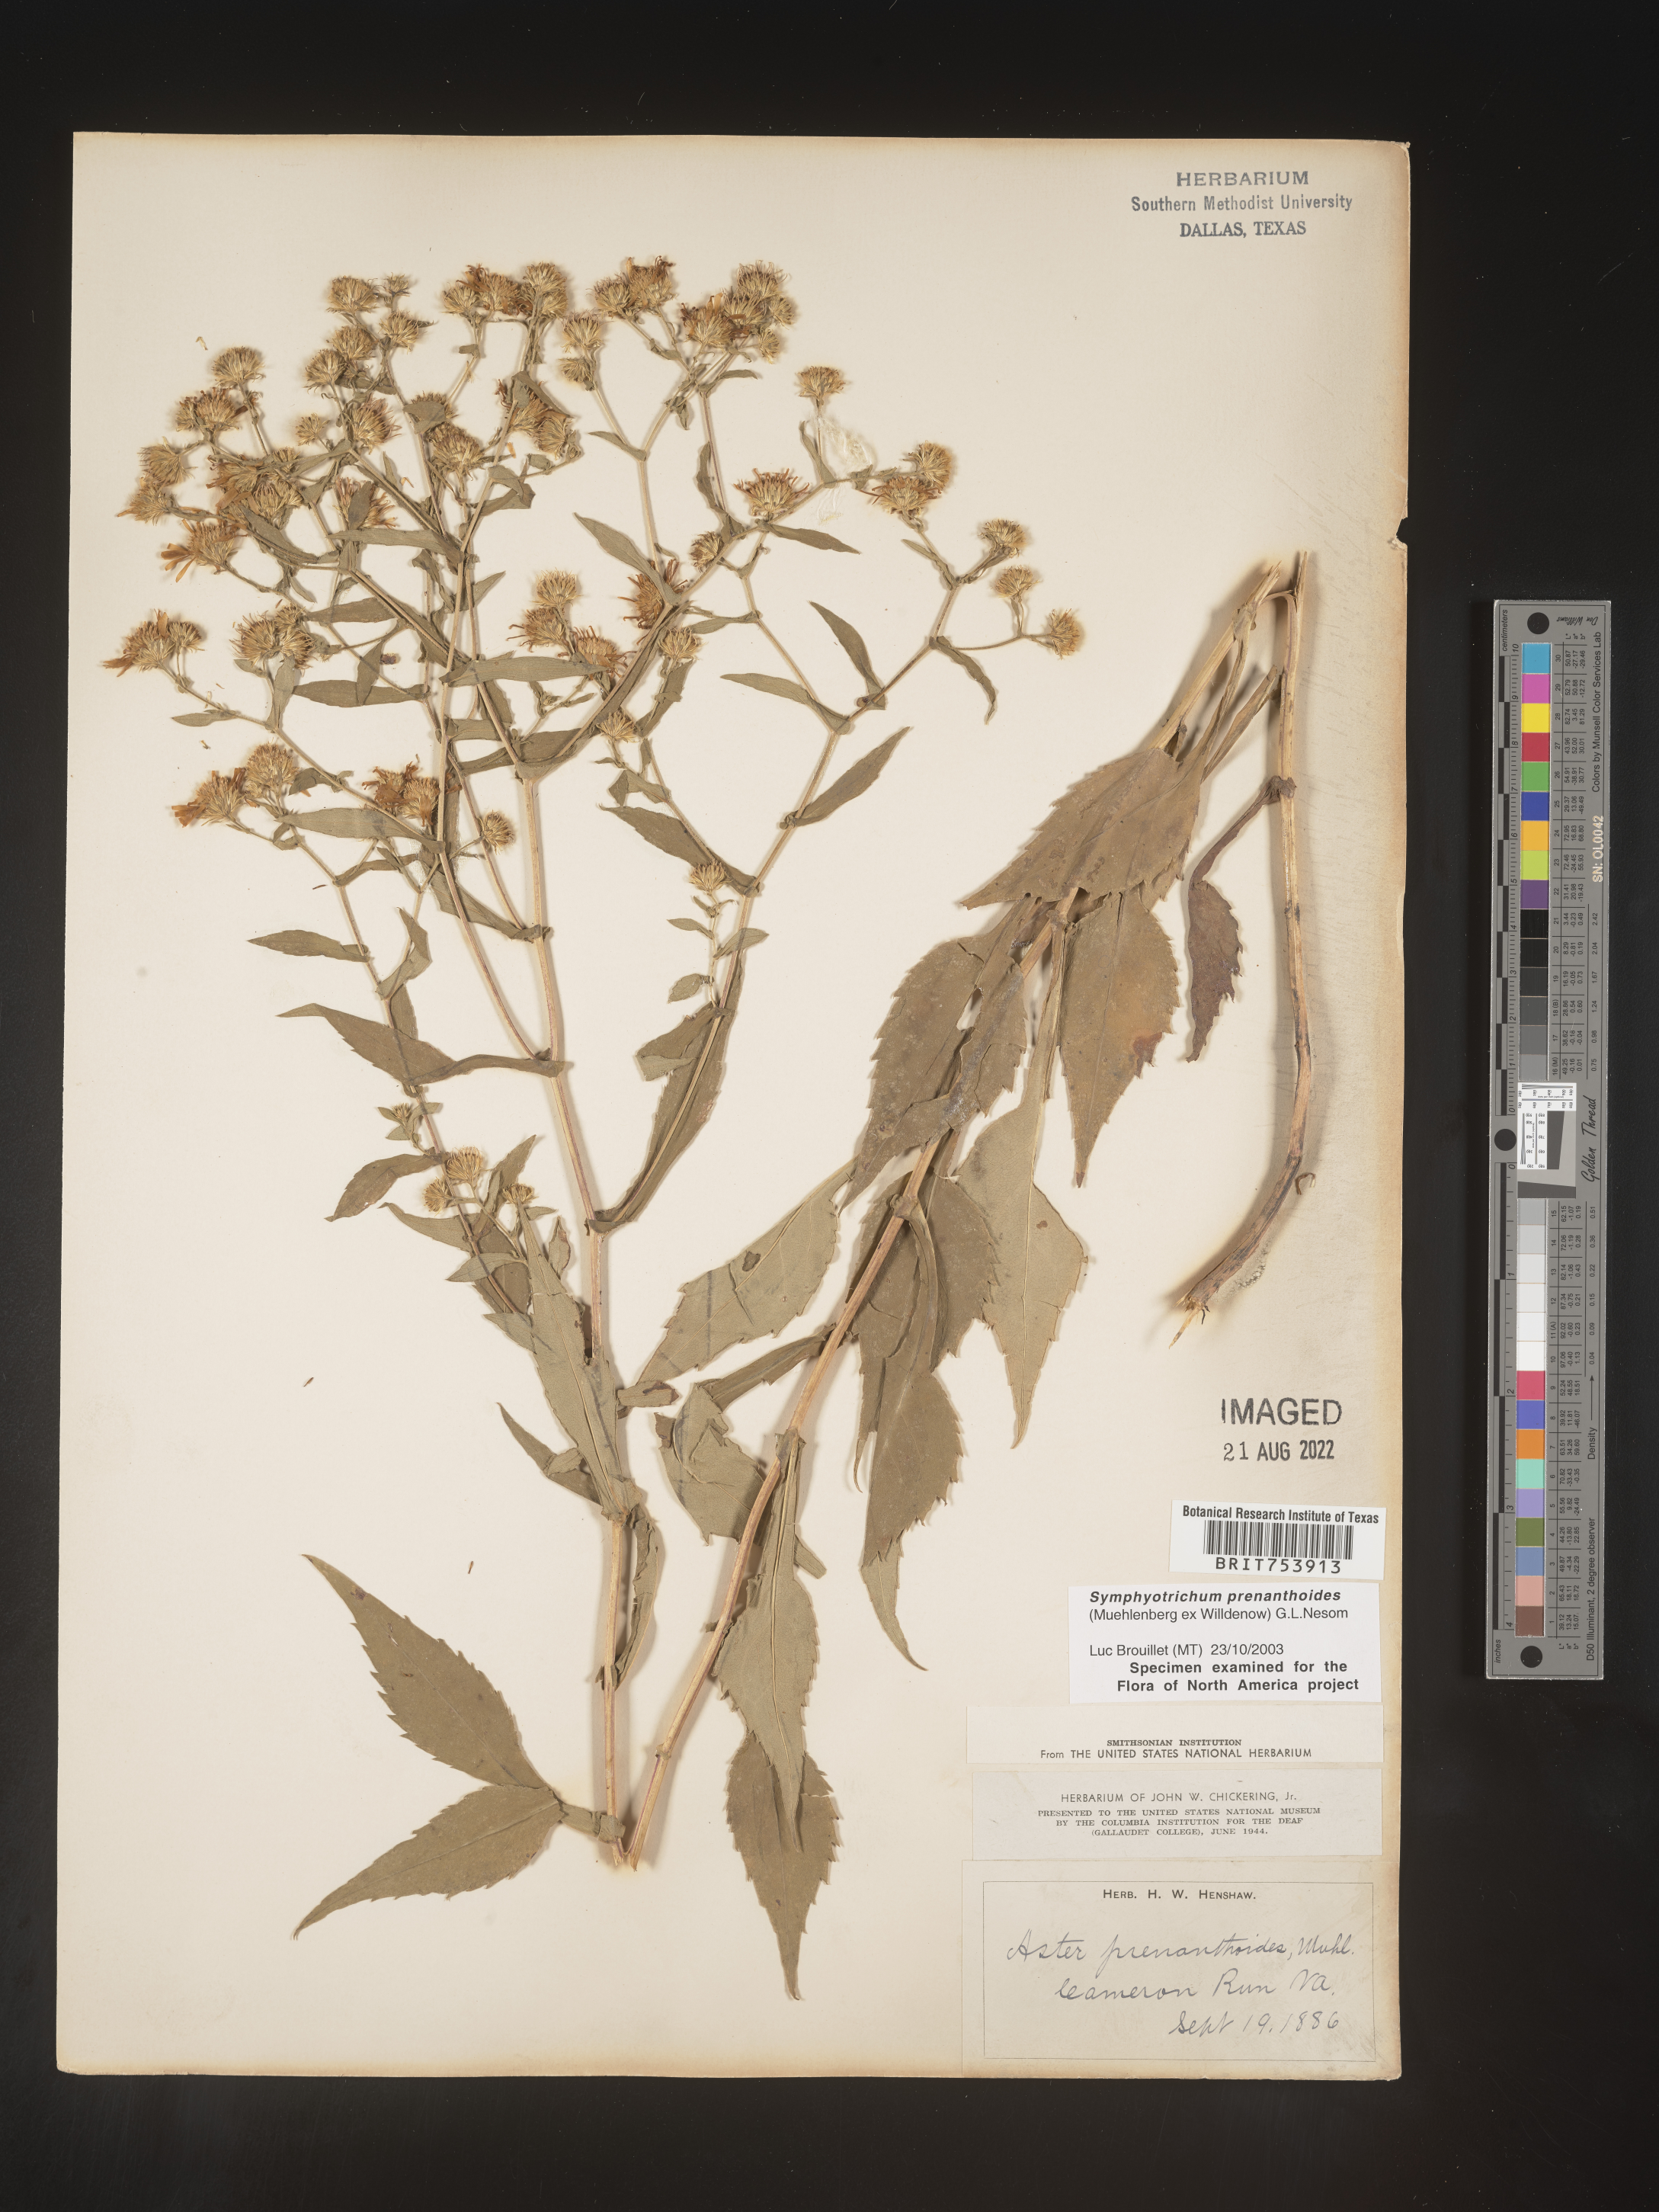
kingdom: Plantae
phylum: Tracheophyta
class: Magnoliopsida
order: Asterales
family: Asteraceae
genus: Symphyotrichum
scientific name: Symphyotrichum prenanthoides
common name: Crooked-stem aster
